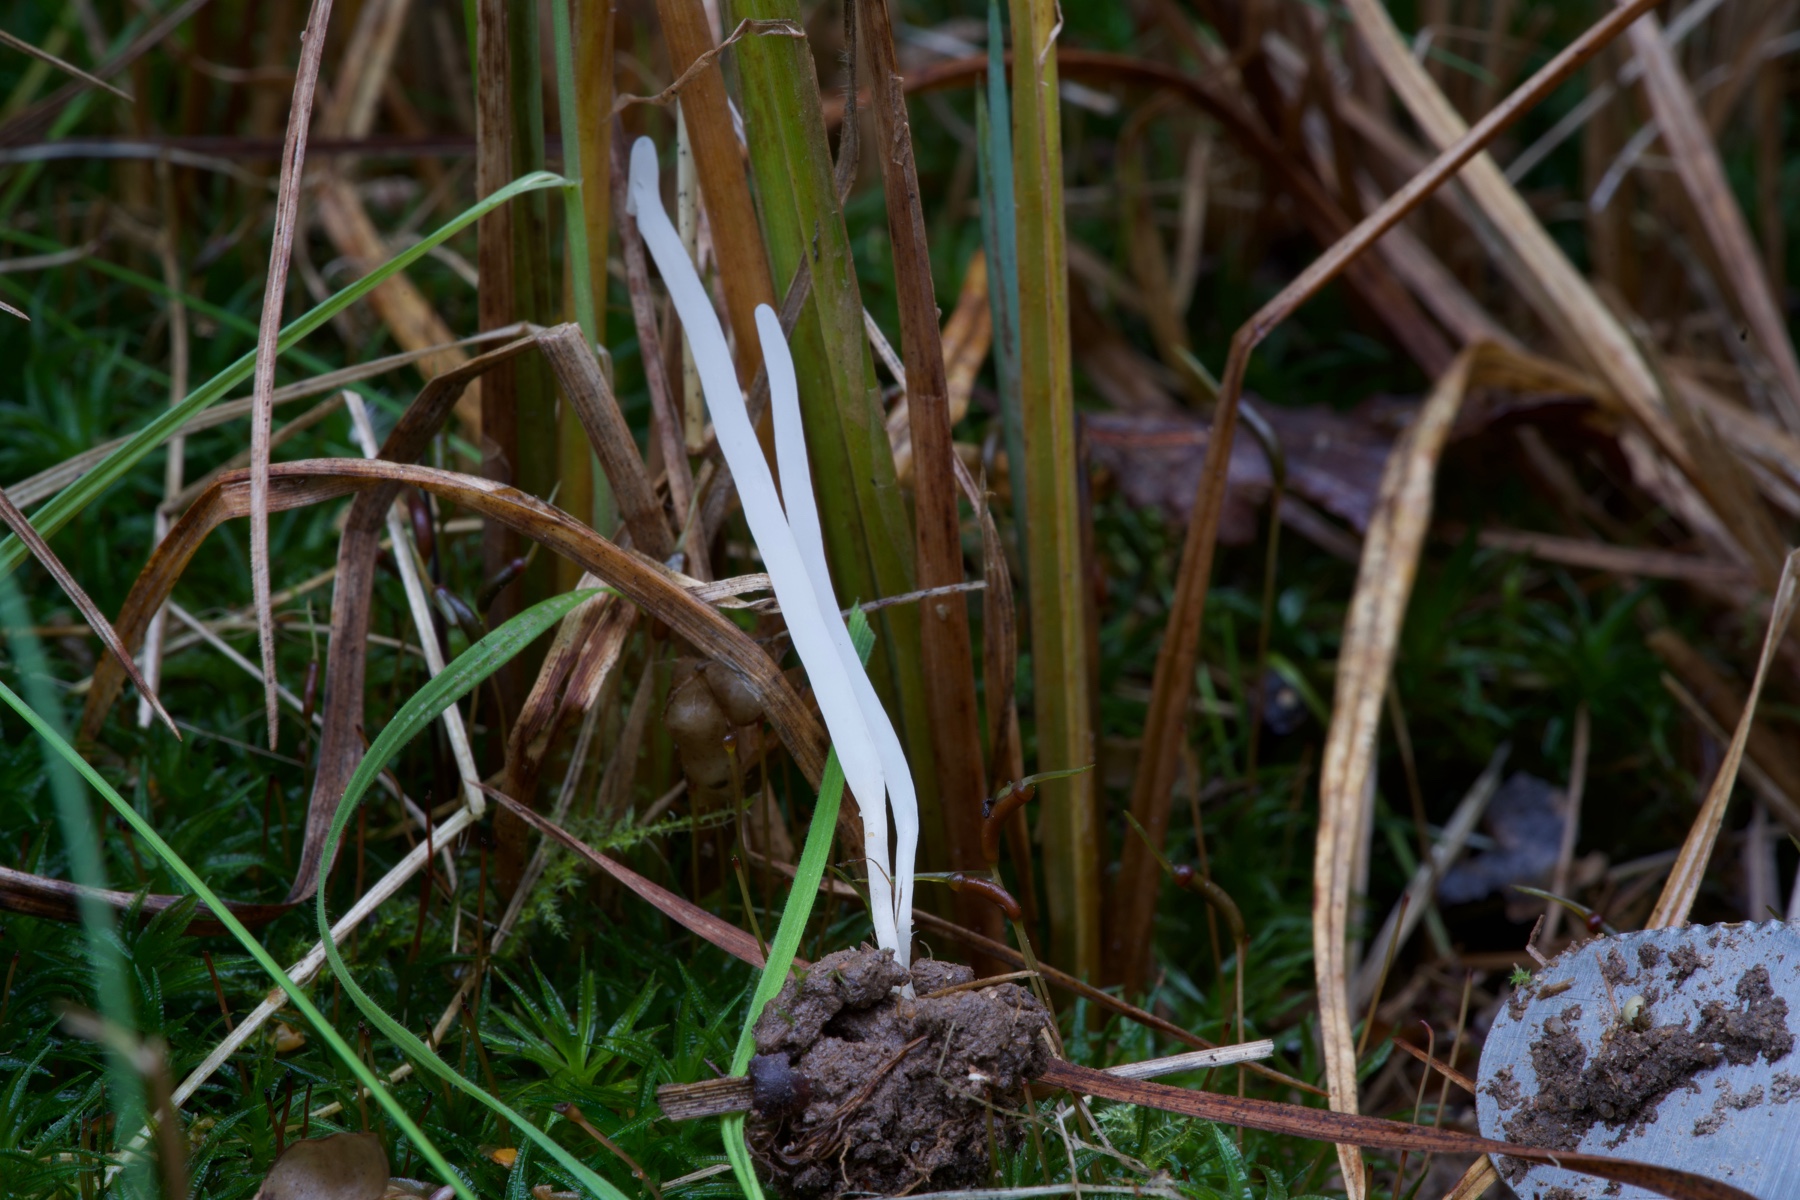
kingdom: Fungi
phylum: Basidiomycota
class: Agaricomycetes
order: Agaricales
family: Clavariaceae
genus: Clavaria
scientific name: Clavaria falcata
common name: hvid køllesvamp
